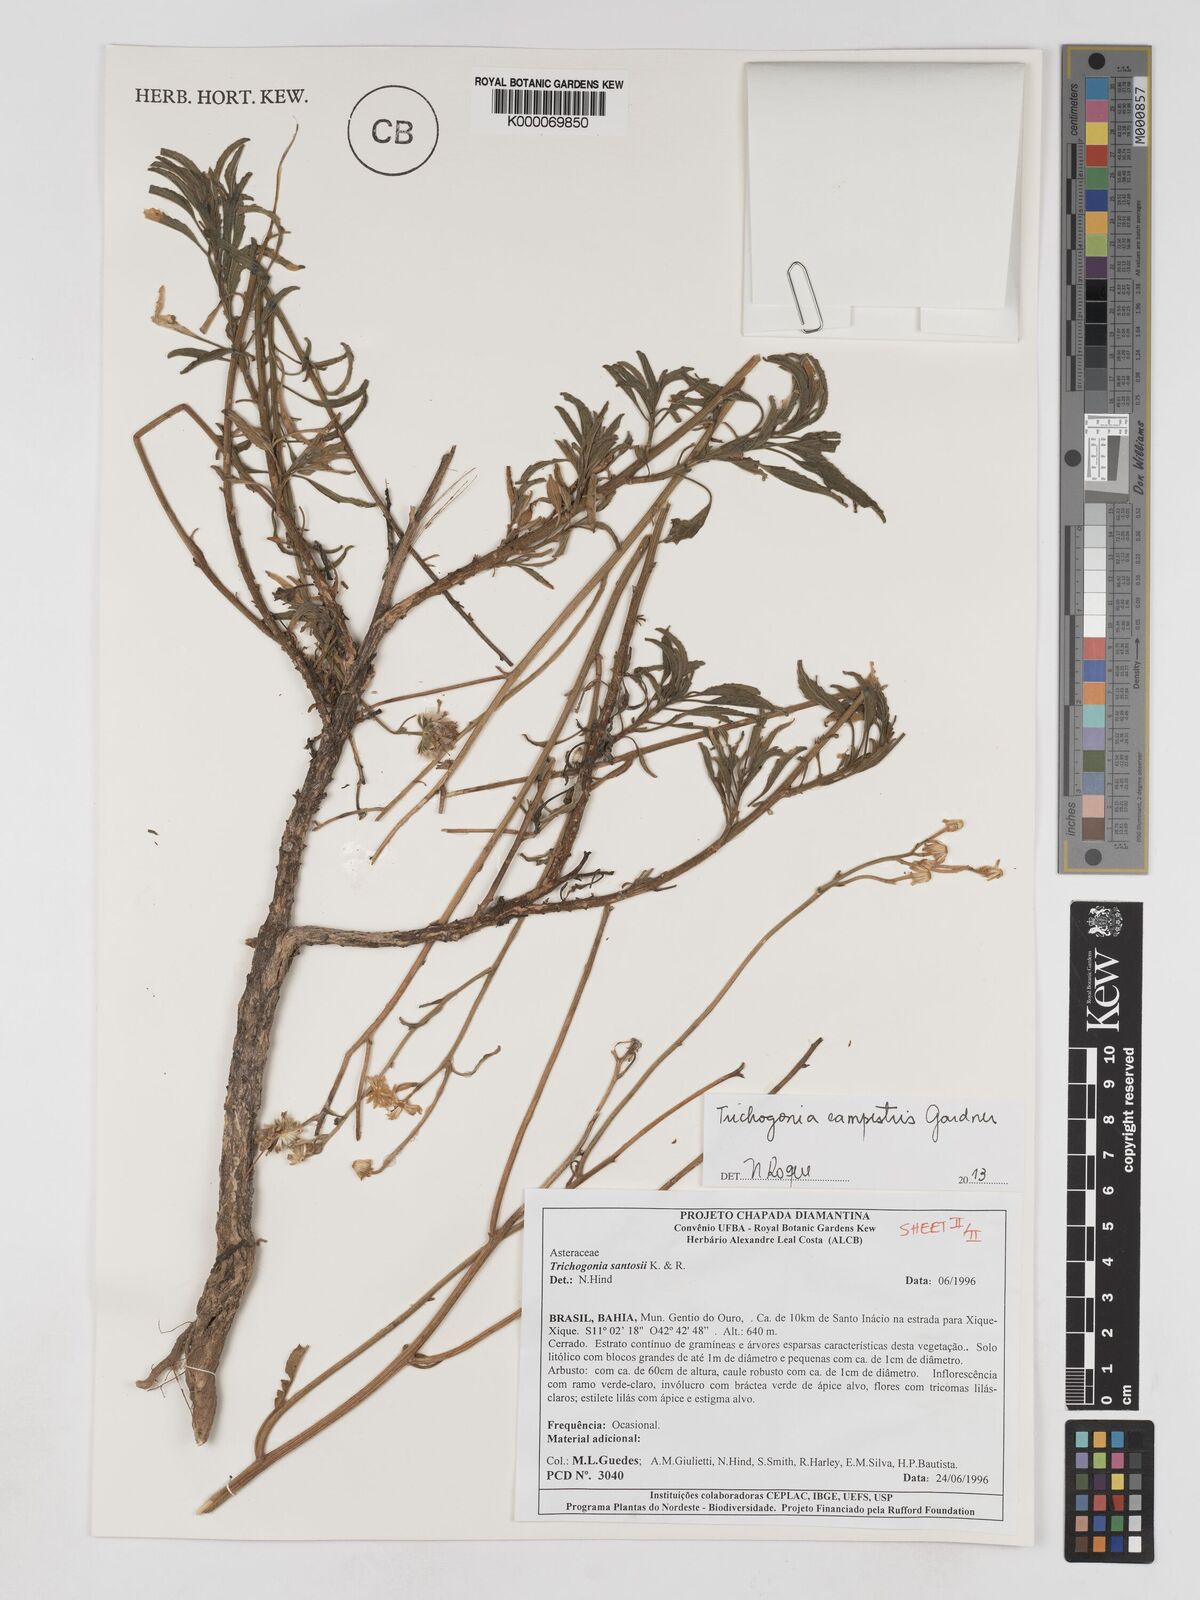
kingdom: Plantae
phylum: Tracheophyta
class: Magnoliopsida
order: Asterales
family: Asteraceae
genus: Trichogonia
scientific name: Trichogonia santosii
